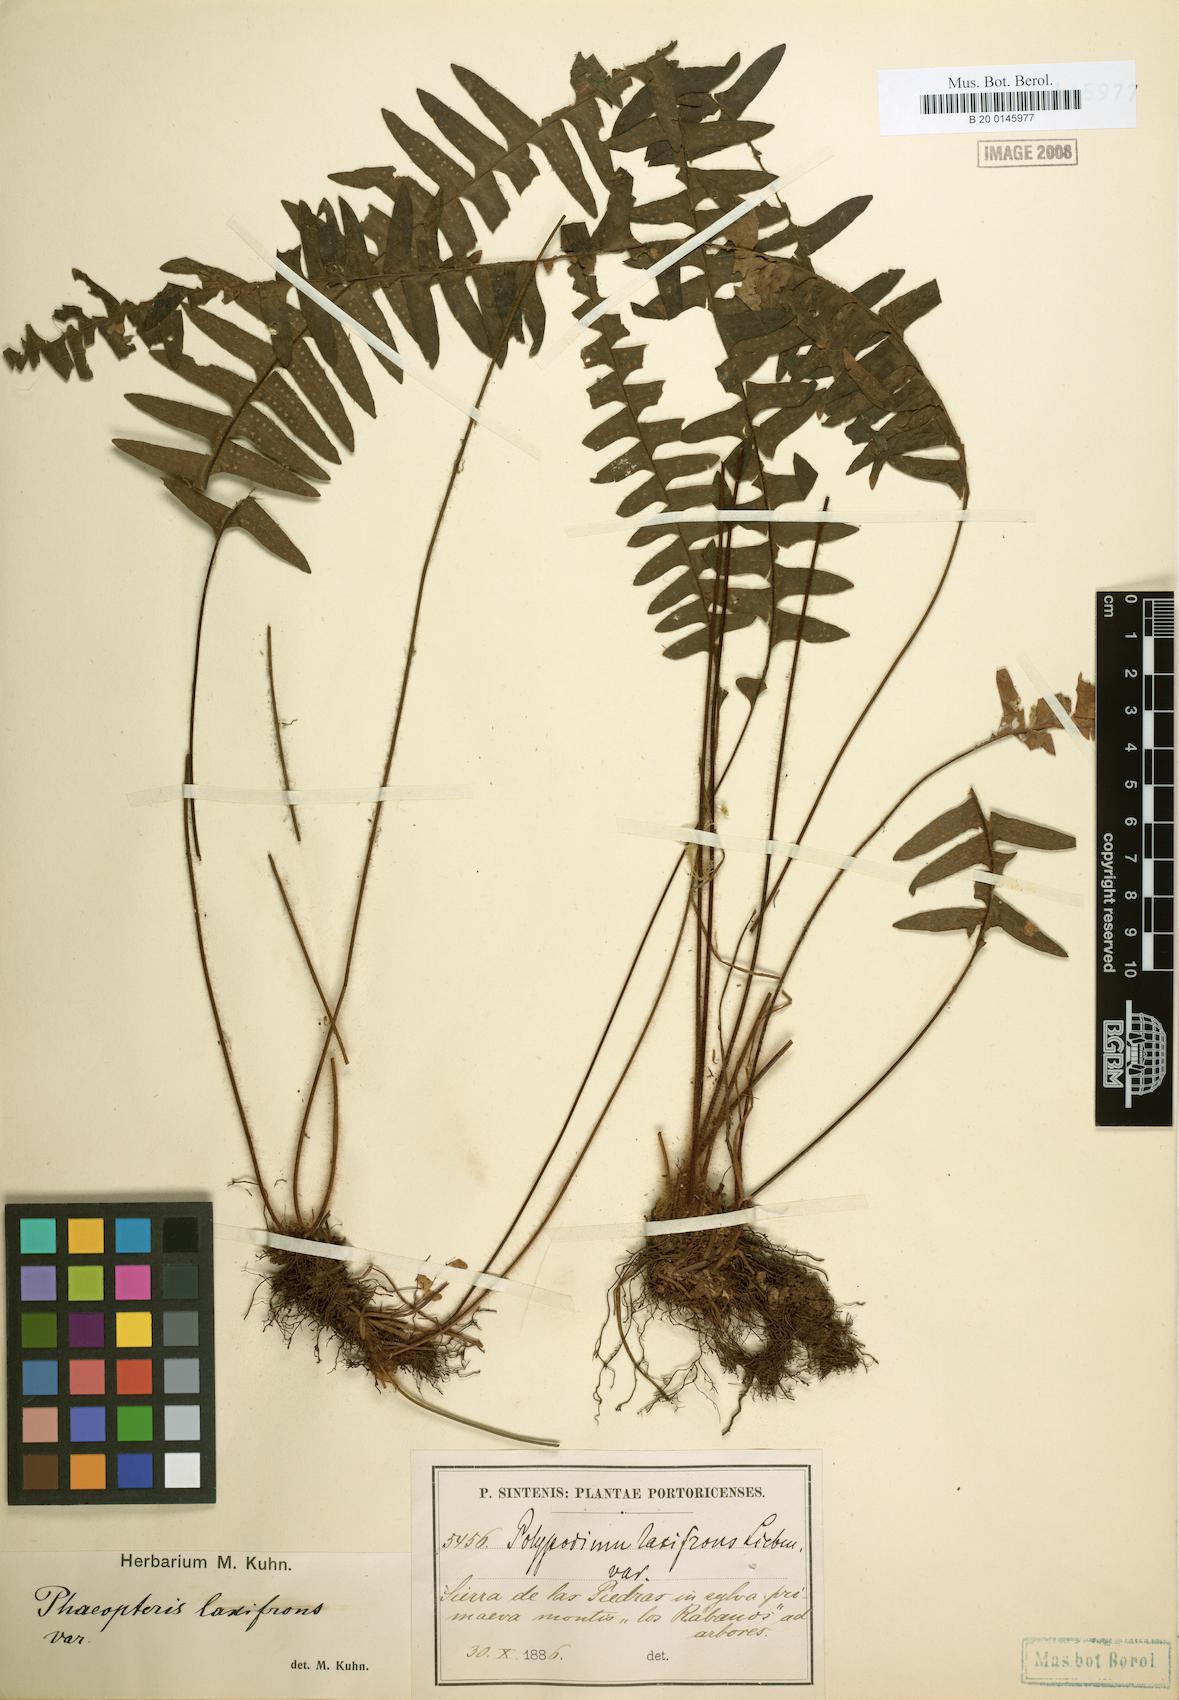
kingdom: Plantae
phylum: Tracheophyta
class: Polypodiopsida
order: Polypodiales
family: Polypodiaceae
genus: Terpsichore
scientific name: Terpsichore asplenifolia
